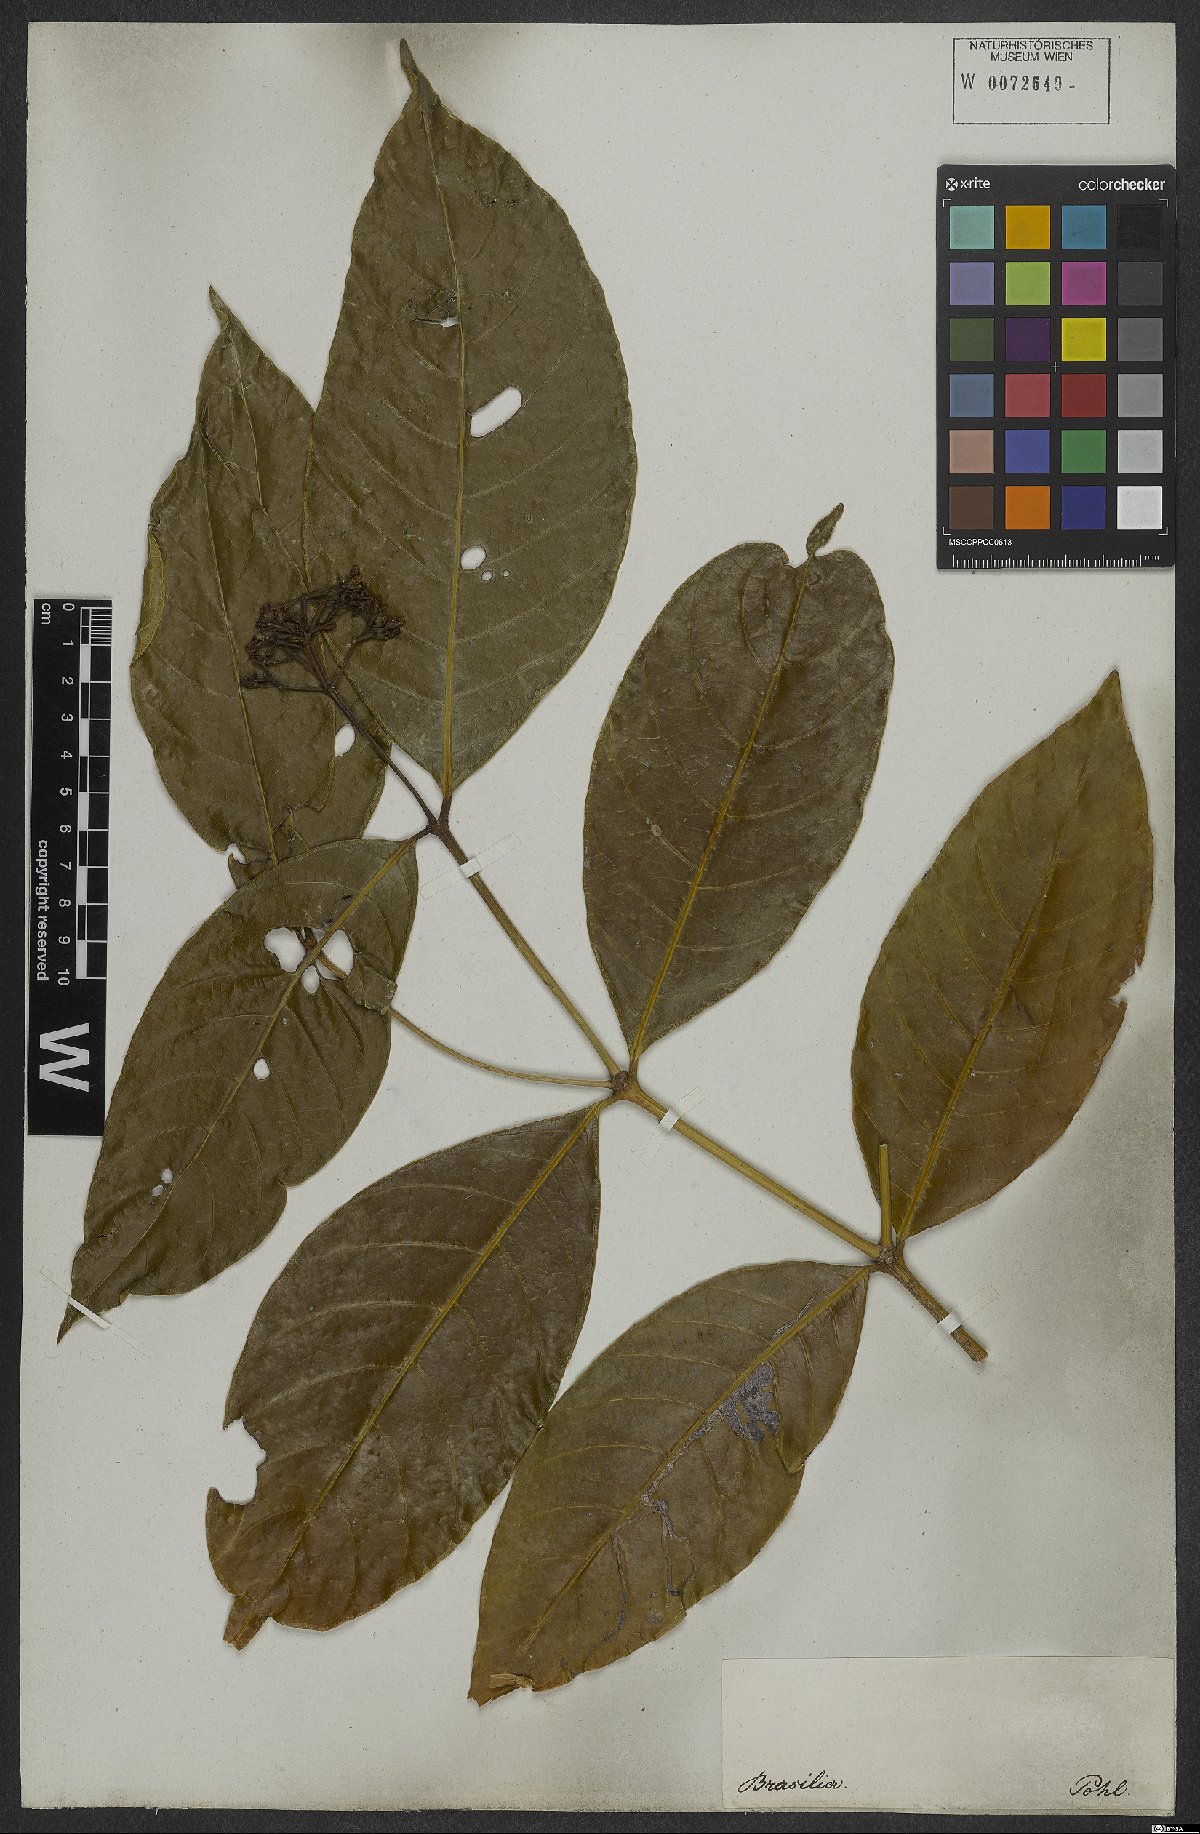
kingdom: Plantae
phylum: Tracheophyta
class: Magnoliopsida
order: Gentianales
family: Rubiaceae
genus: Rudgea
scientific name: Rudgea palicoureoides
